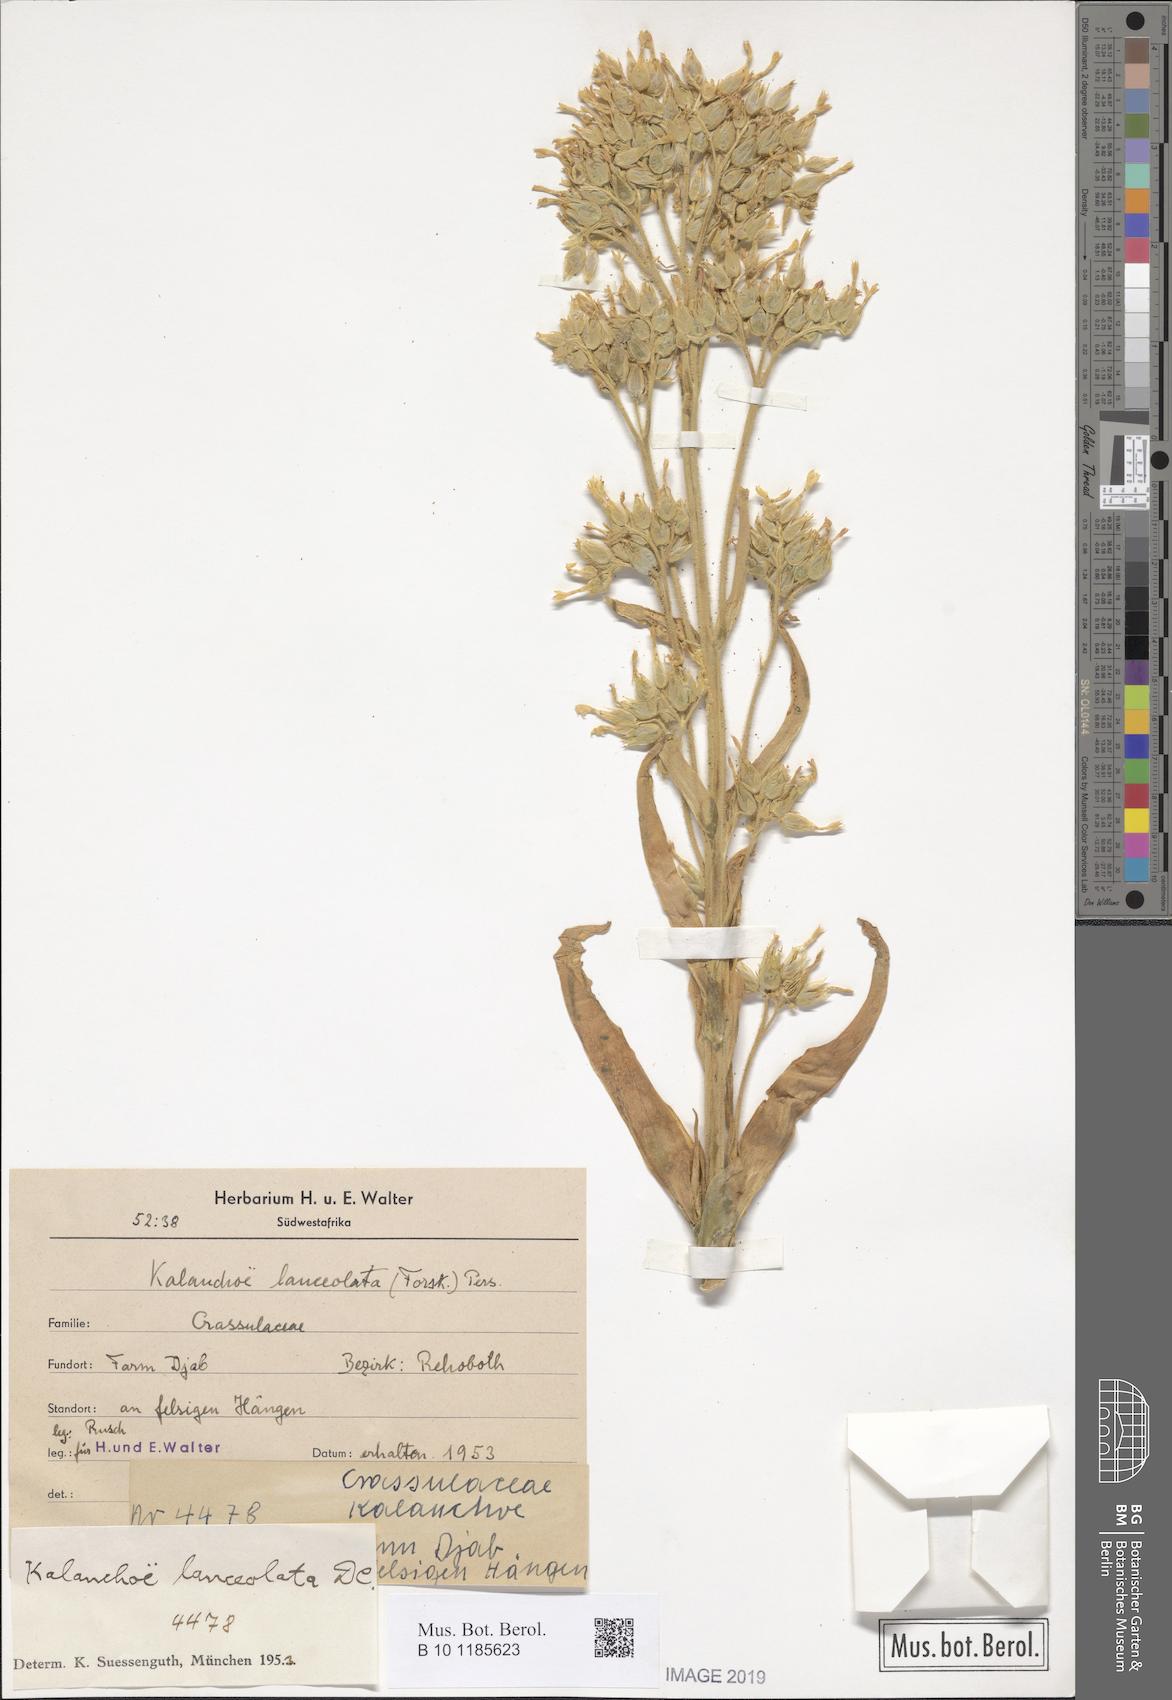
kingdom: Plantae
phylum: Tracheophyta
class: Magnoliopsida
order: Saxifragales
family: Crassulaceae
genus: Kalanchoe
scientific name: Kalanchoe lanceolata
